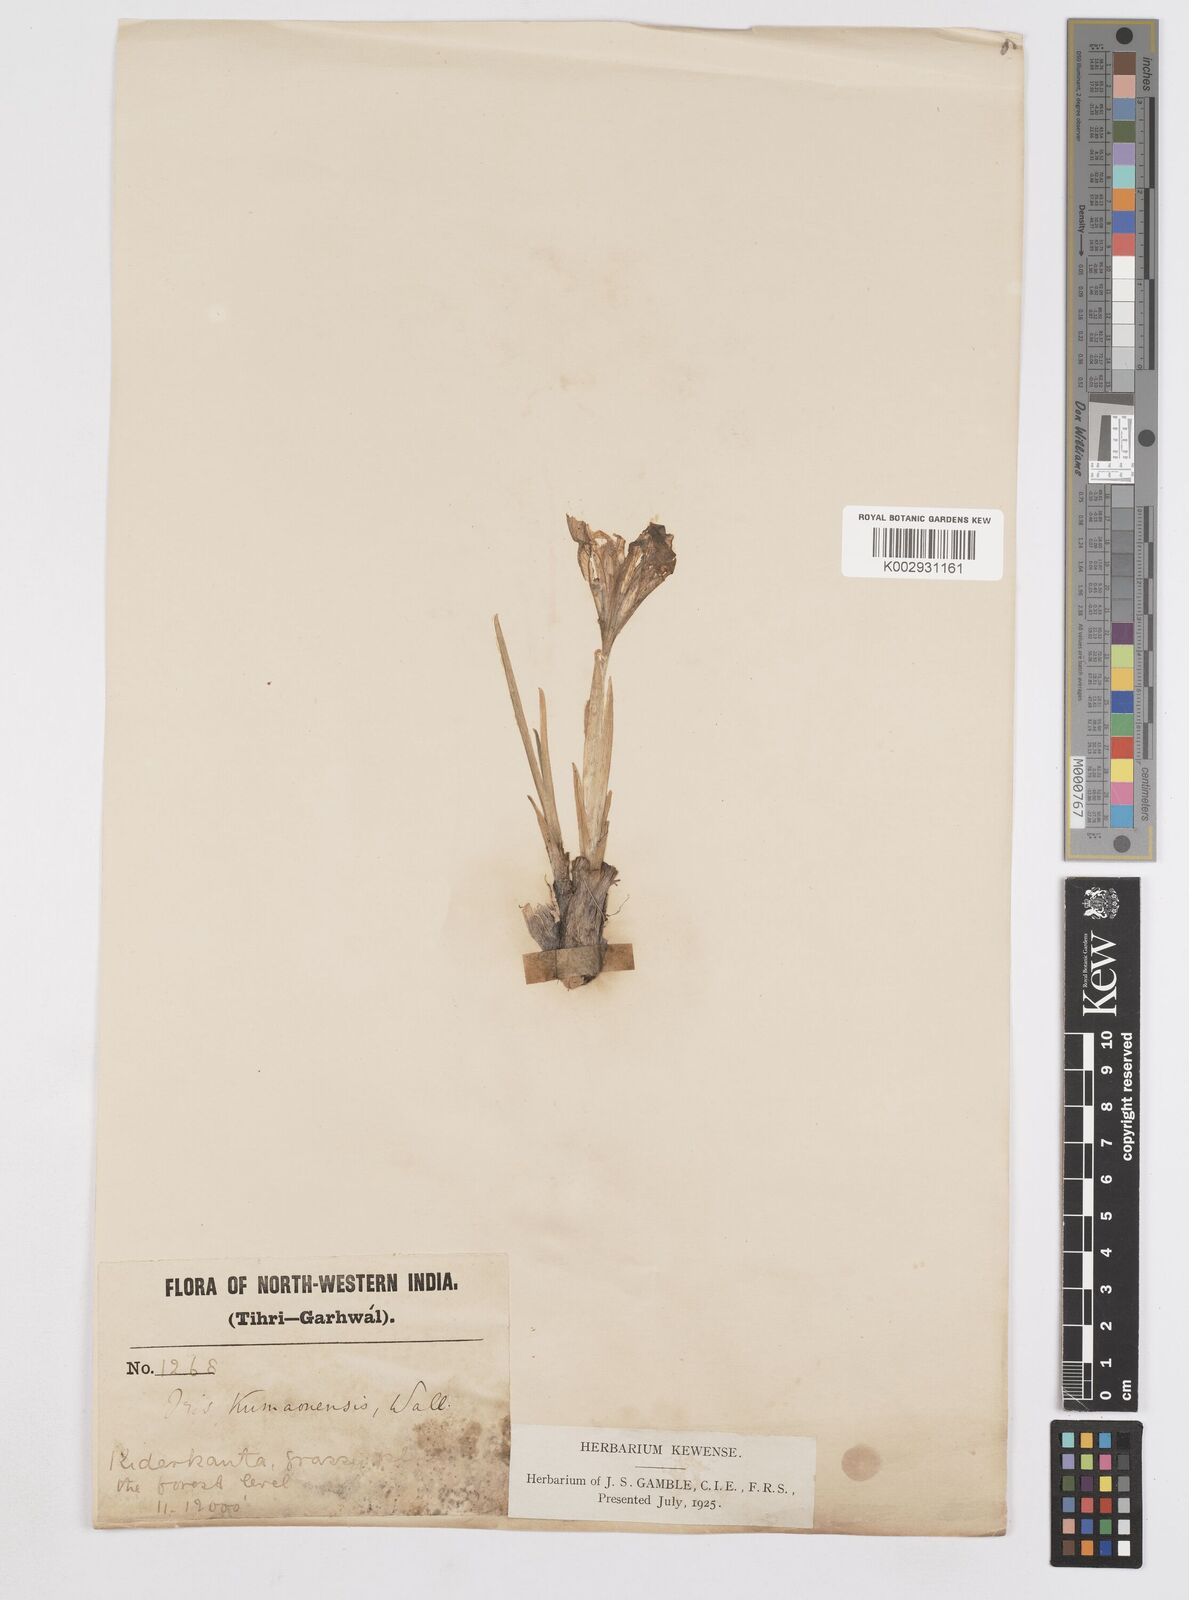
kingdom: Plantae
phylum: Tracheophyta
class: Liliopsida
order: Asparagales
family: Iridaceae
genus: Iris
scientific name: Iris kemaonensis
